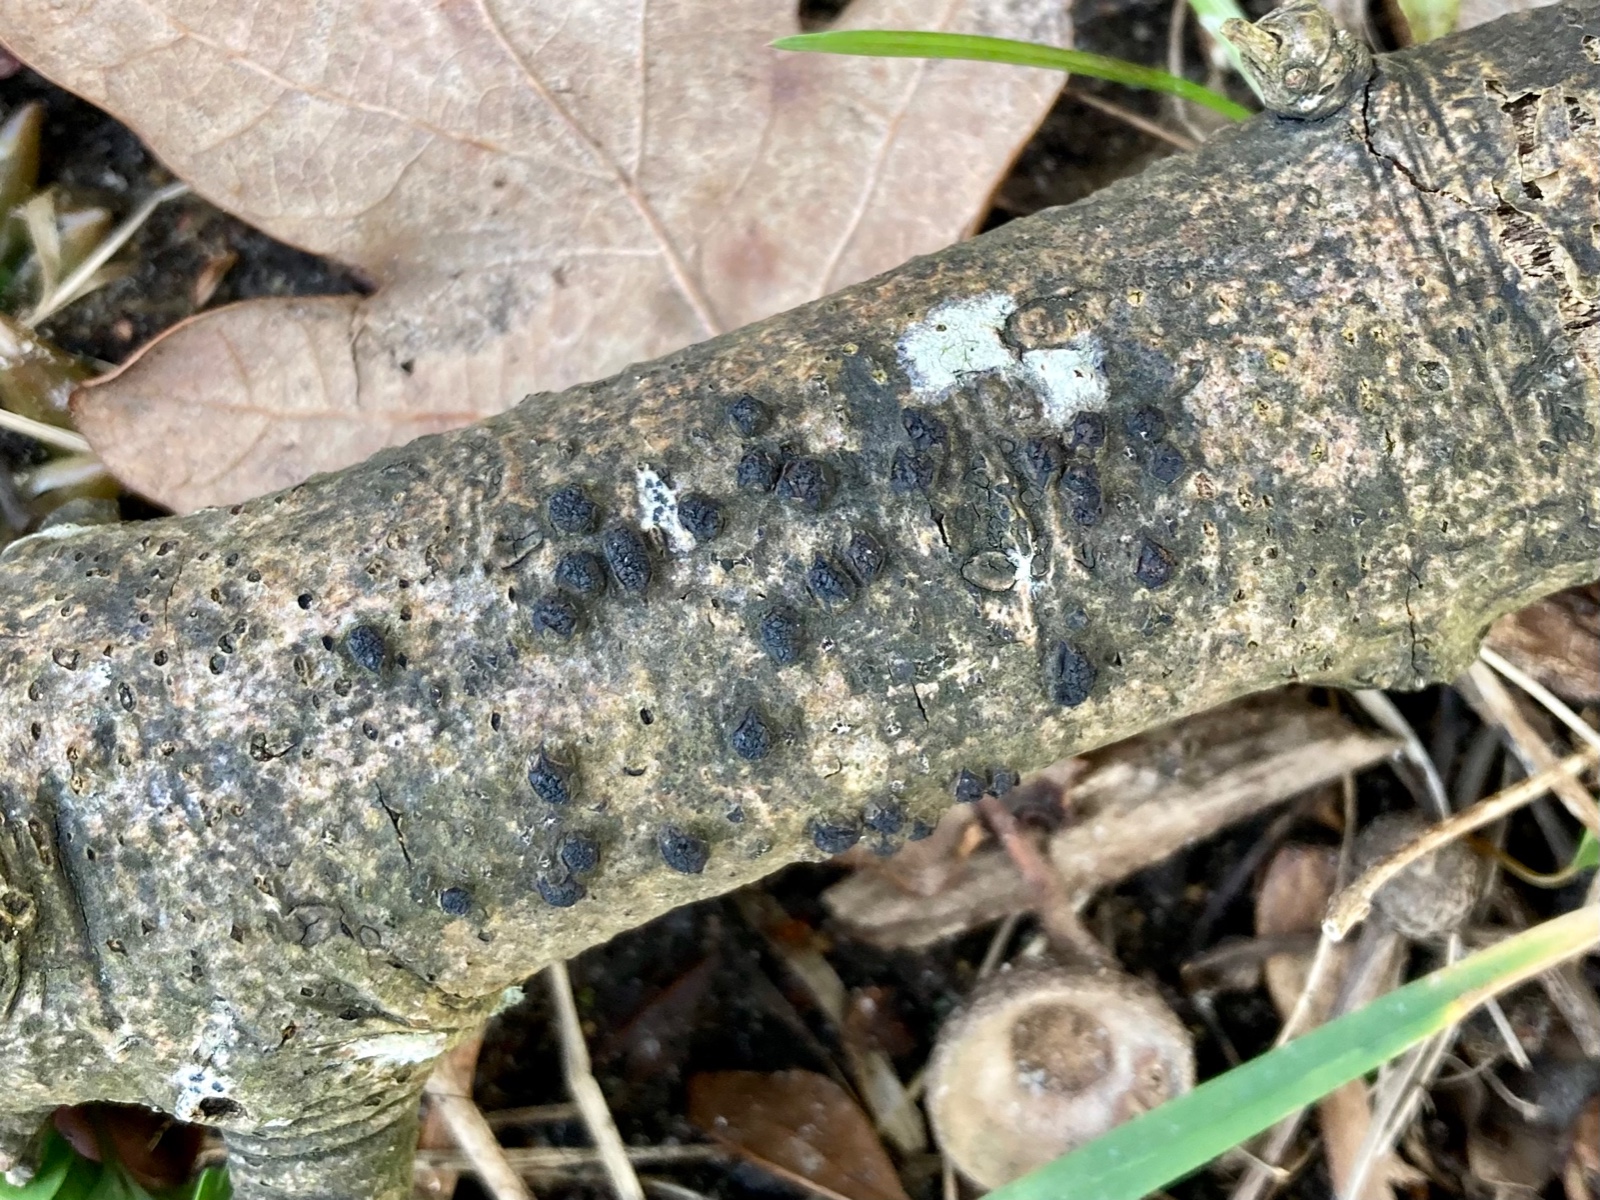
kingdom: Fungi
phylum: Ascomycota
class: Sordariomycetes
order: Xylariales
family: Diatrypaceae
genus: Diatrypella
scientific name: Diatrypella quercina
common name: ege-kulskorpe
